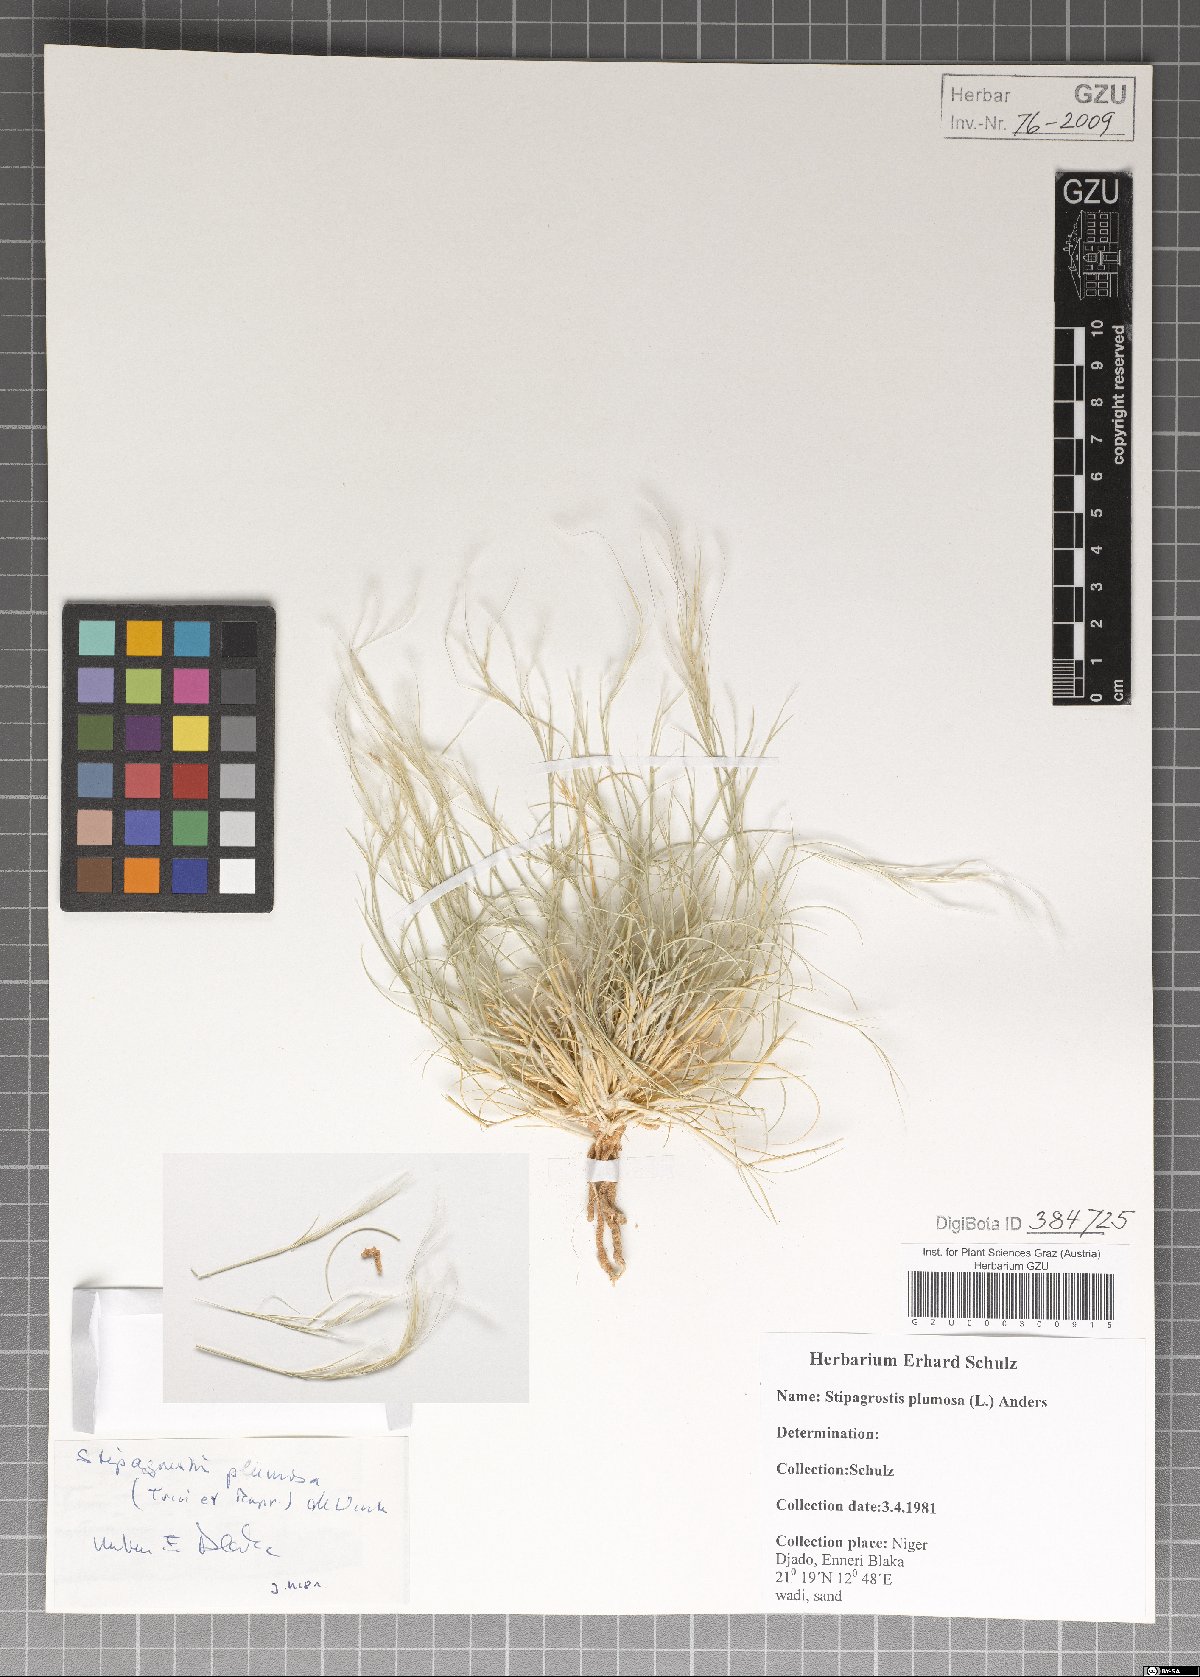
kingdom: Plantae
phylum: Tracheophyta
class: Liliopsida
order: Poales
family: Poaceae
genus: Stipagrostis
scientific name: Stipagrostis plumosa
